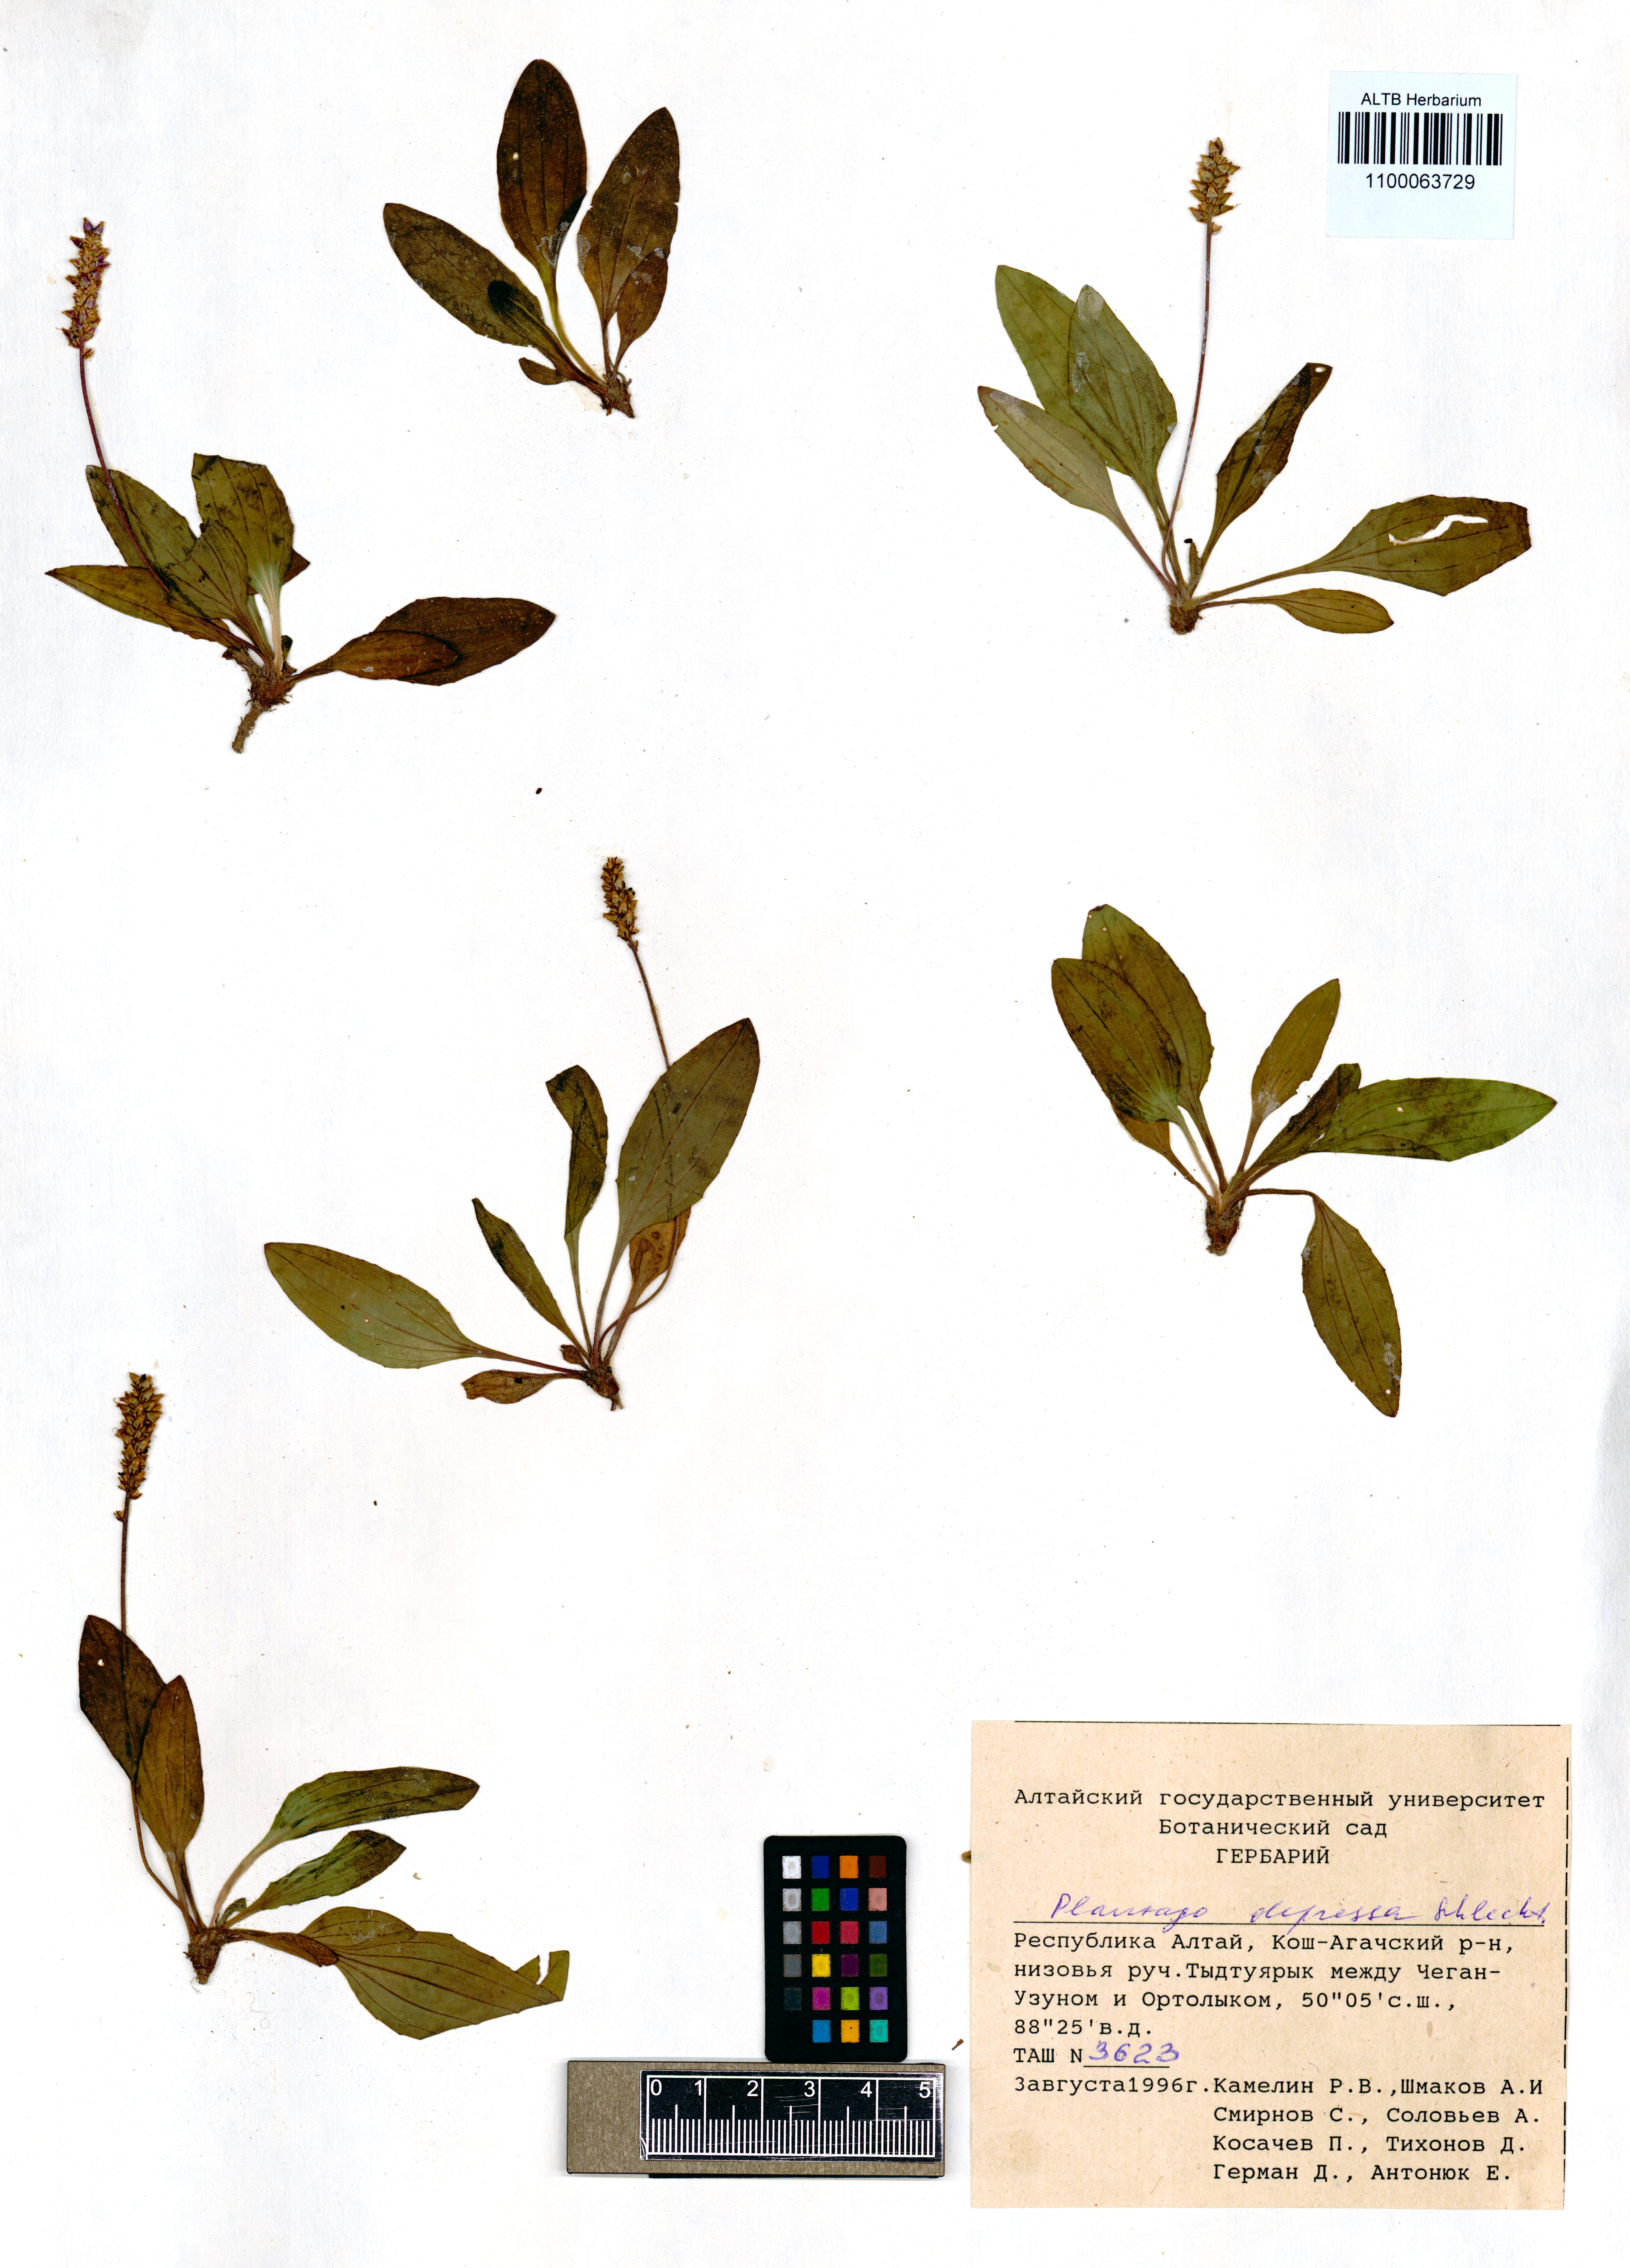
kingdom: Plantae
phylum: Tracheophyta
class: Magnoliopsida
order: Lamiales
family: Plantaginaceae
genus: Plantago
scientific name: Plantago depressa
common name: Depressed plantain
